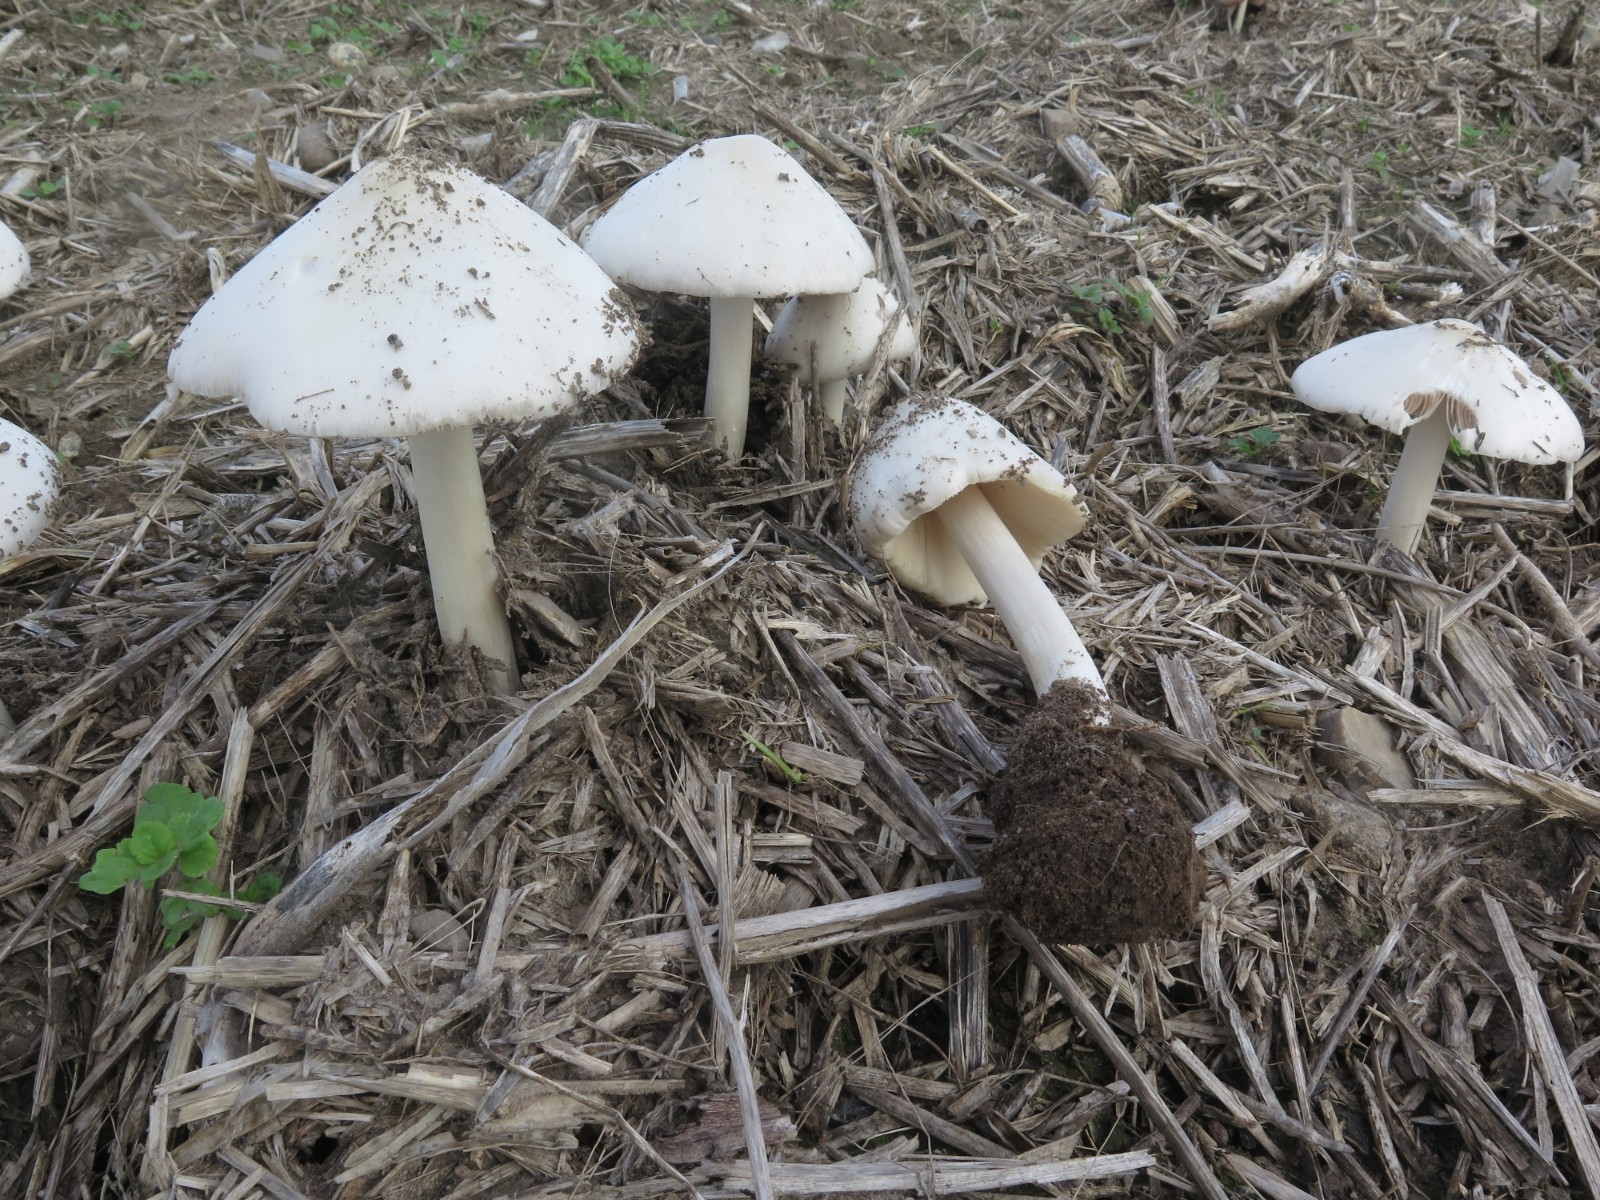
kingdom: Fungi
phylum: Basidiomycota
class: Agaricomycetes
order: Agaricales
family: Pluteaceae
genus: Volvopluteus
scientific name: Volvopluteus gloiocephalus
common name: høj posesvamp
